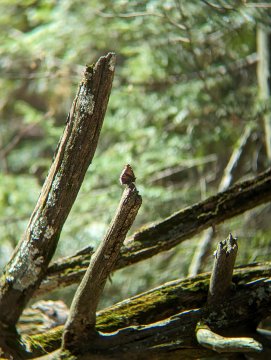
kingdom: Animalia
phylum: Arthropoda
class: Insecta
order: Lepidoptera
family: Nymphalidae
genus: Nymphalis
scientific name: Nymphalis antiopa
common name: Mourning Cloak
